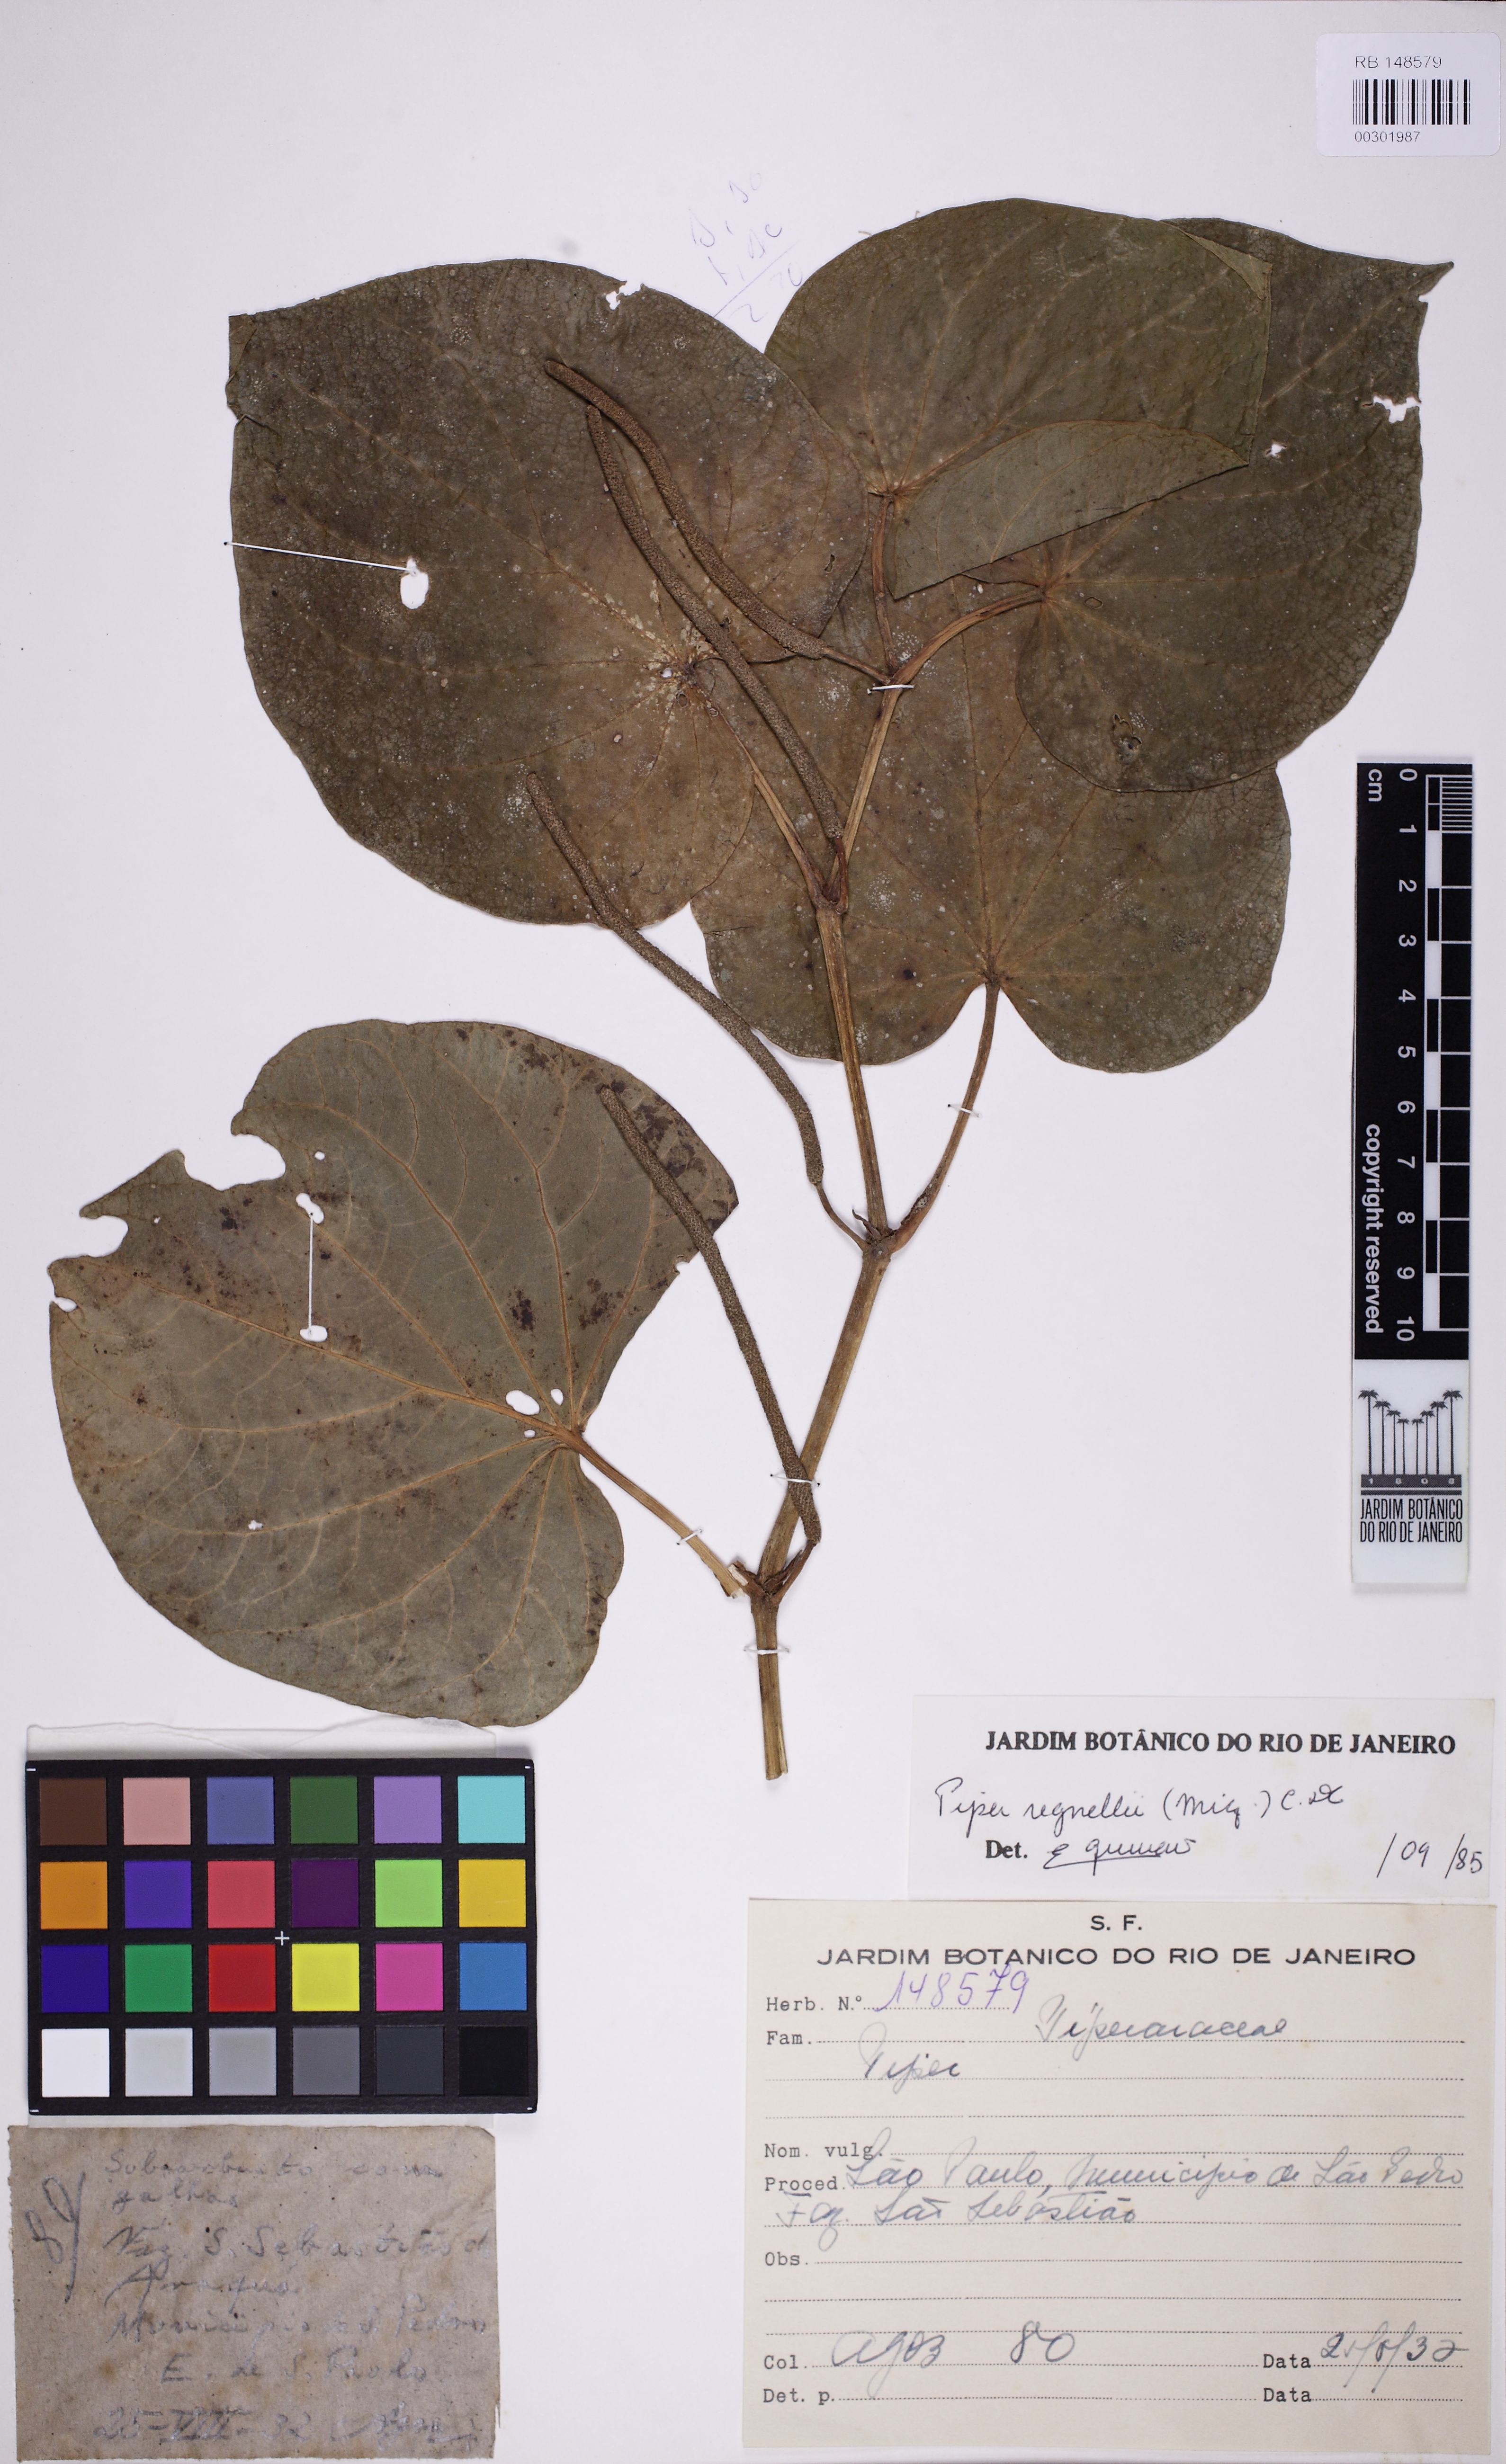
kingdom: Plantae
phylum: Tracheophyta
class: Magnoliopsida
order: Piperales
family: Piperaceae
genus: Piper
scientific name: Piper regnellii
